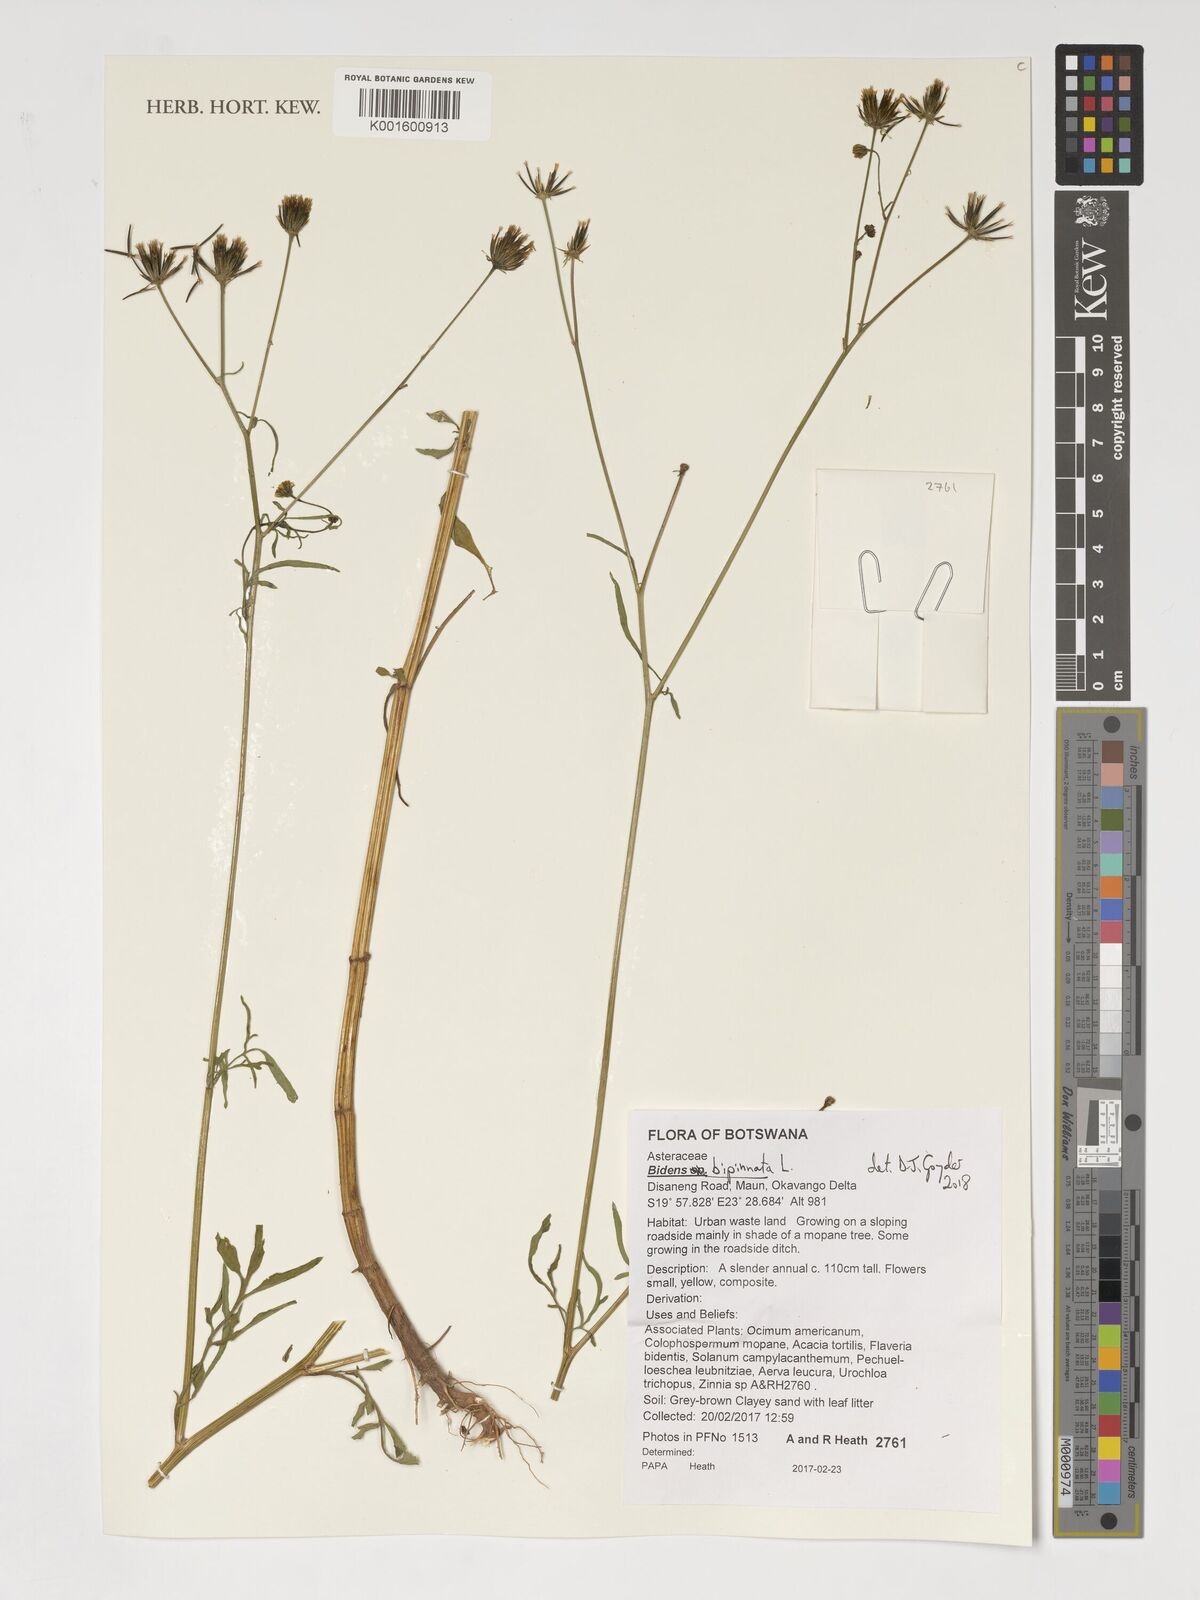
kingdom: Plantae
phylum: Tracheophyta
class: Magnoliopsida
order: Asterales
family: Asteraceae
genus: Bidens
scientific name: Bidens bipinnata
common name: Spanish-needles
